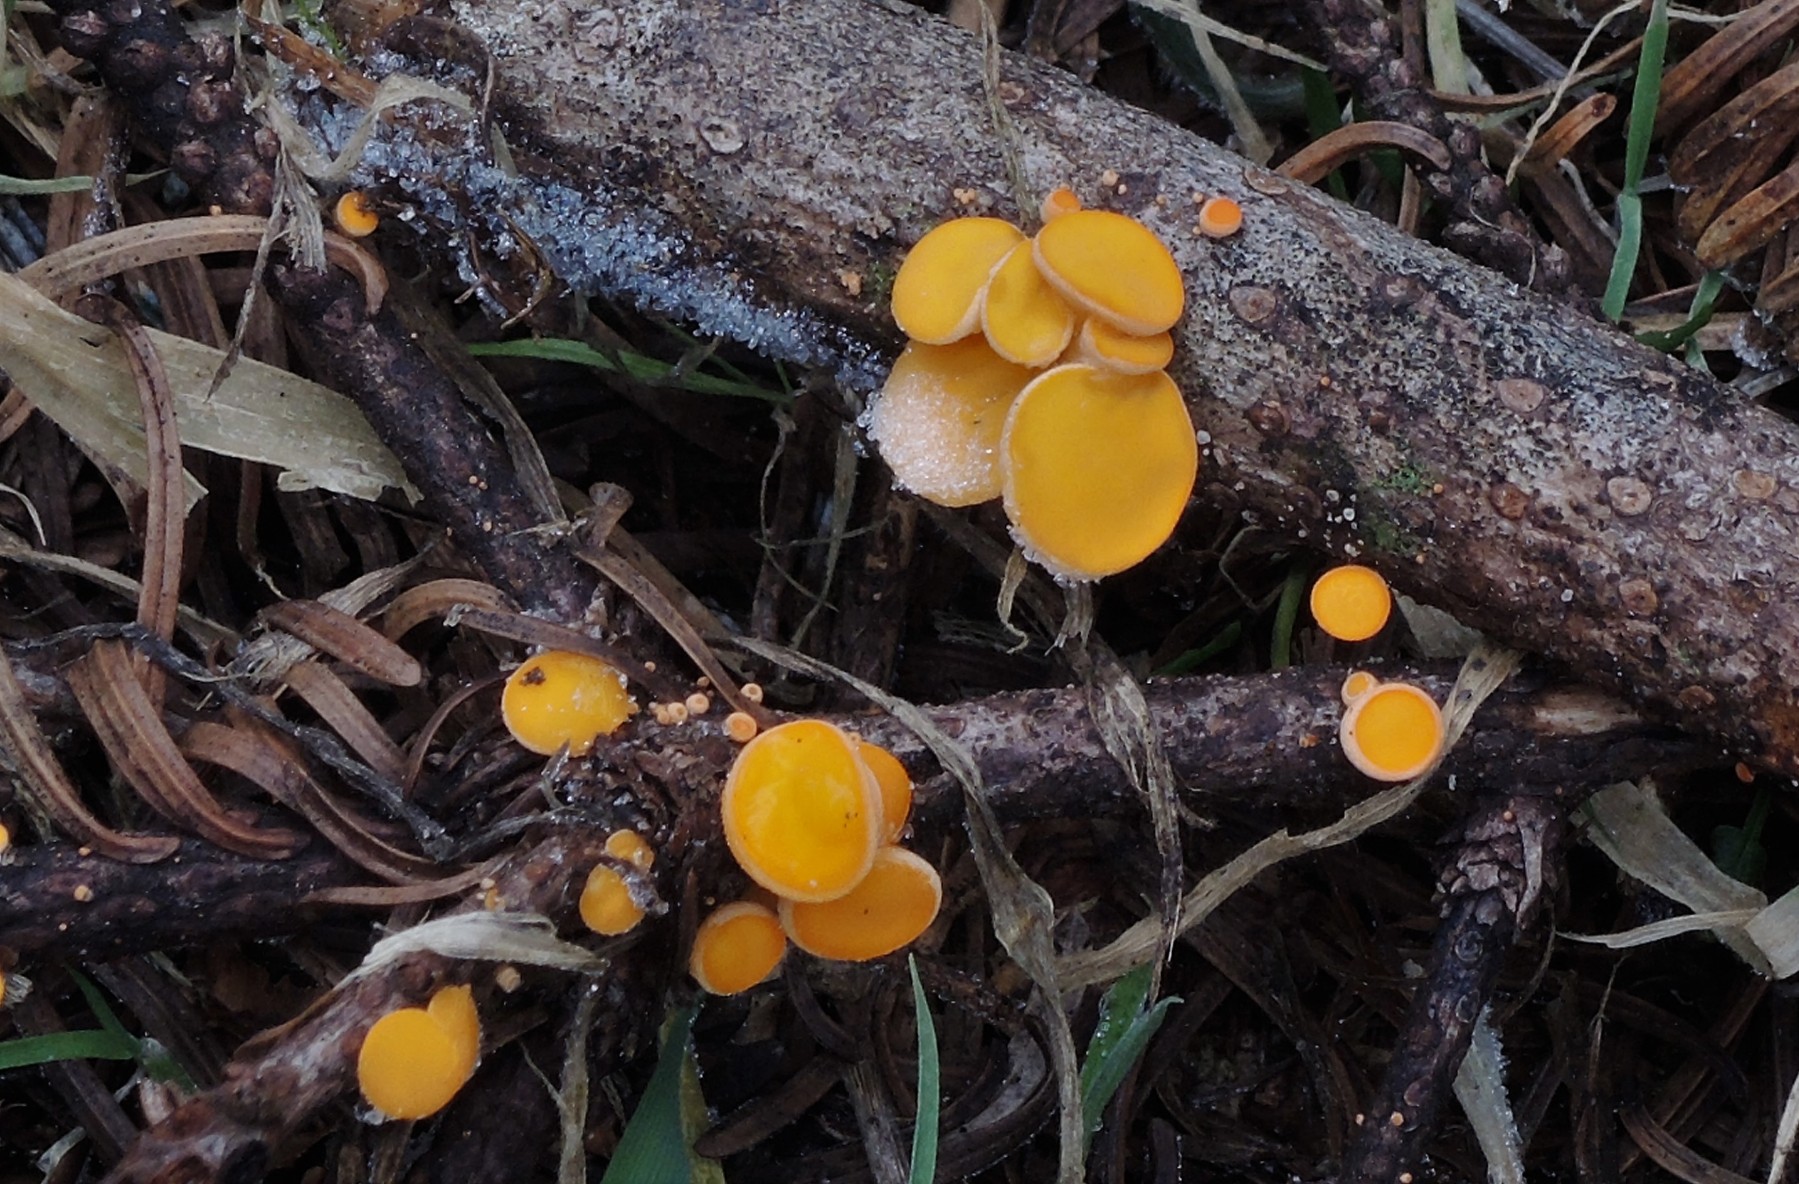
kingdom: Fungi
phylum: Ascomycota
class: Pezizomycetes
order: Pezizales
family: Sarcoscyphaceae
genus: Pithya
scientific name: Pithya vulgaris
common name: stor dukatbæger
